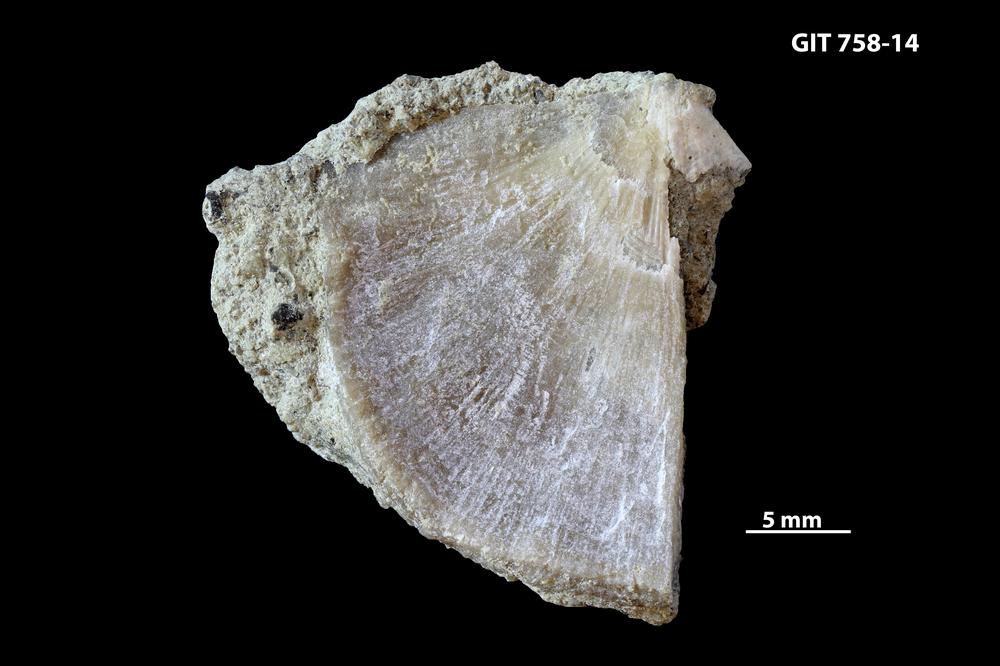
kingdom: Animalia
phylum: Brachiopoda
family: Gonambonitidae
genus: Antigonambonites
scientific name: Antigonambonites aequistriatus
